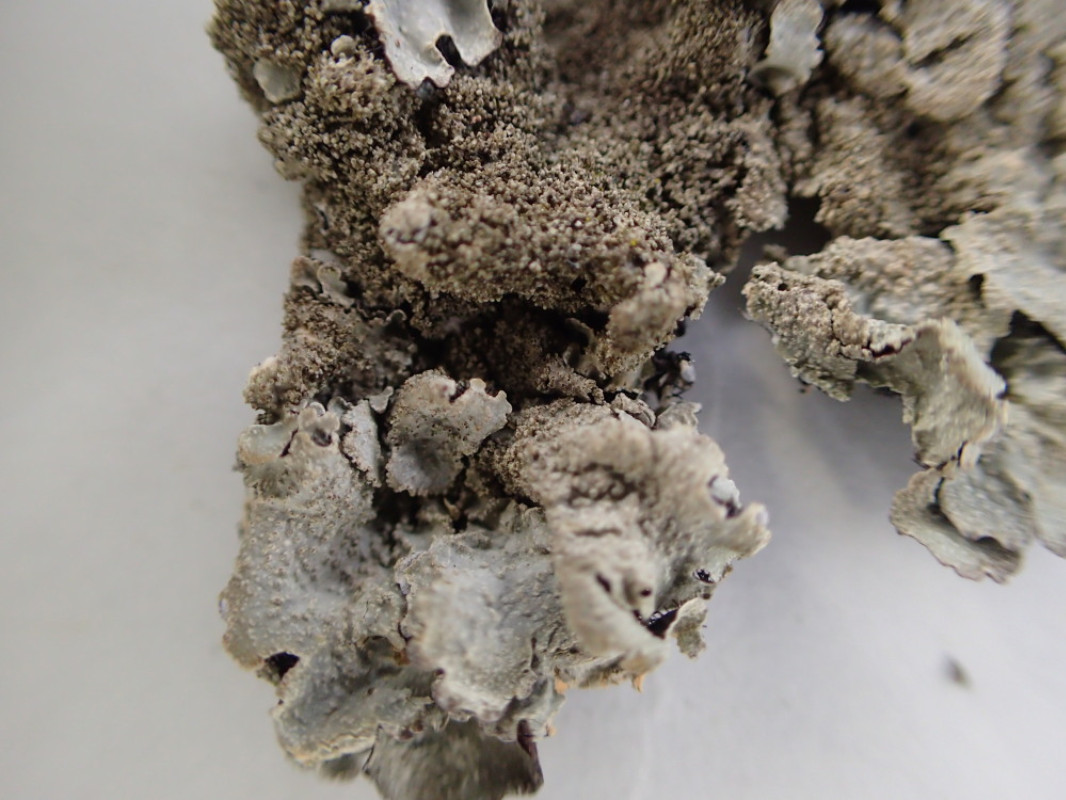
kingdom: Fungi
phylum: Ascomycota
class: Lecanoromycetes
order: Lecanorales
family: Parmeliaceae
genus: Parmelia
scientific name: Parmelia ernstiae
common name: rimstift-skållav
